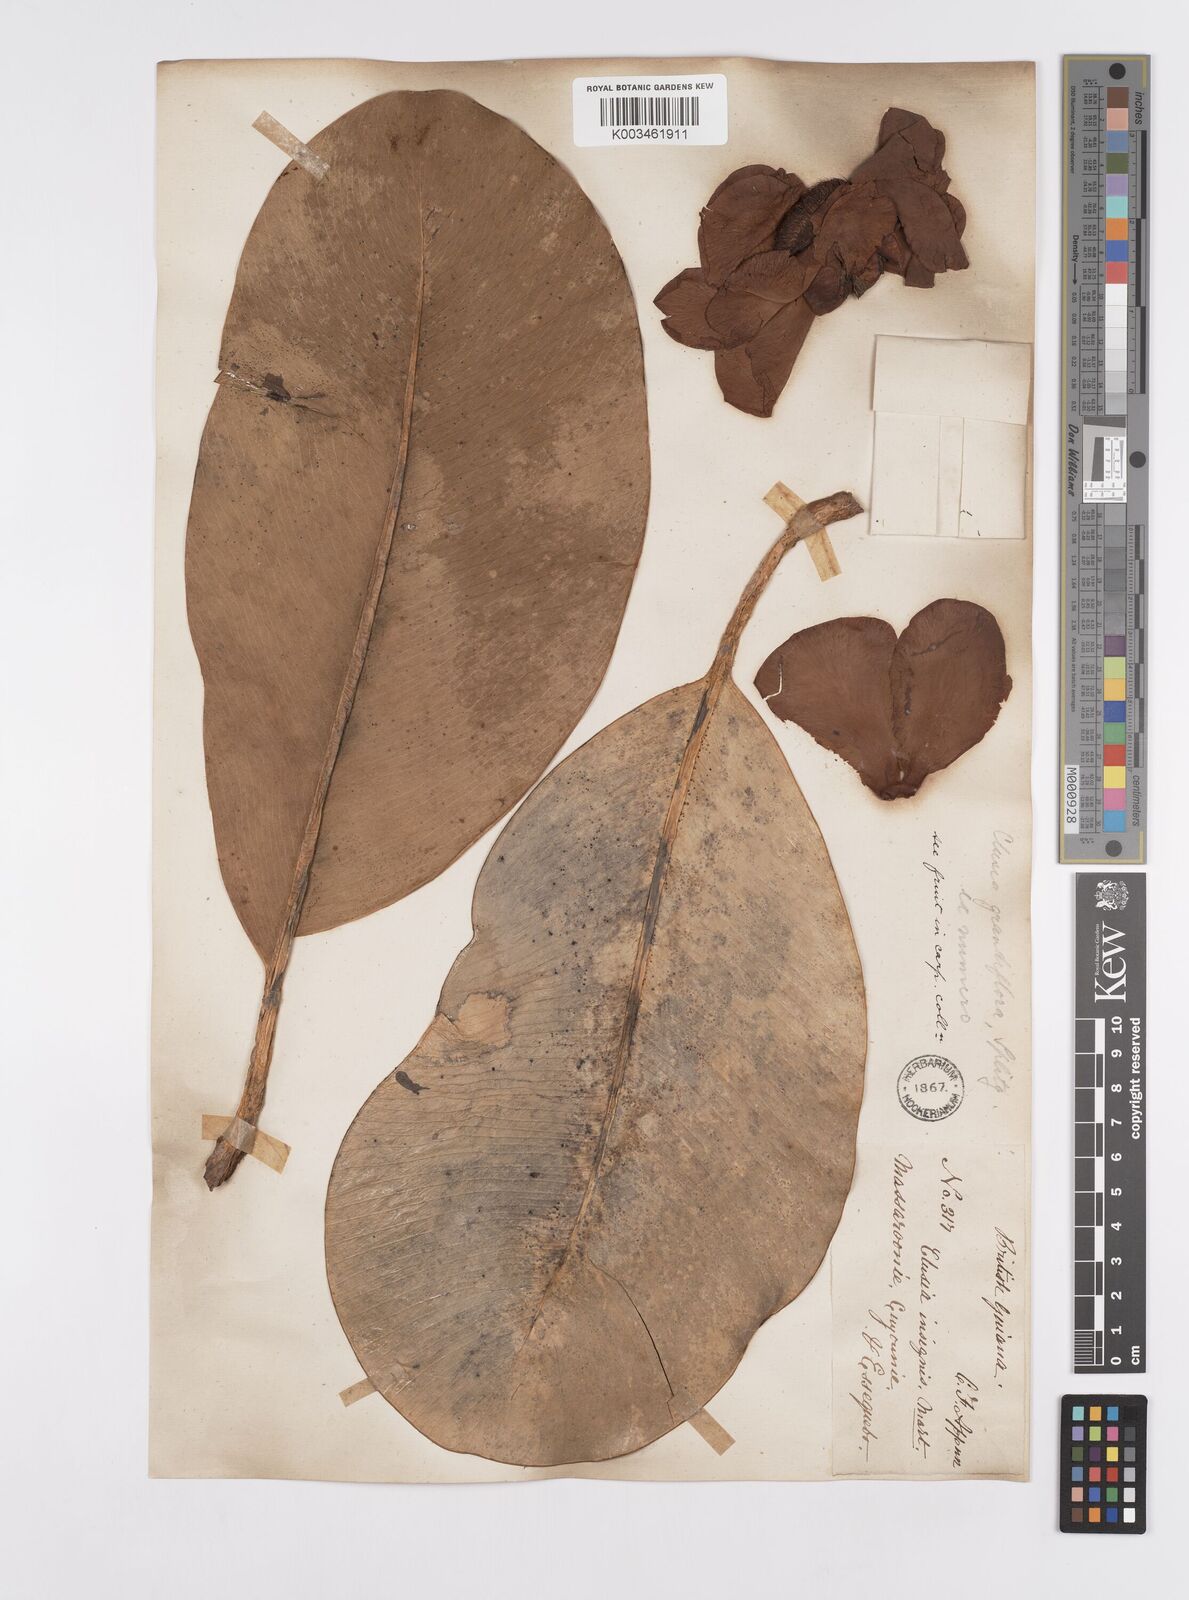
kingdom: Plantae
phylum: Tracheophyta
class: Magnoliopsida
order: Malpighiales
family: Clusiaceae
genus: Clusia
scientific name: Clusia grandiflora
